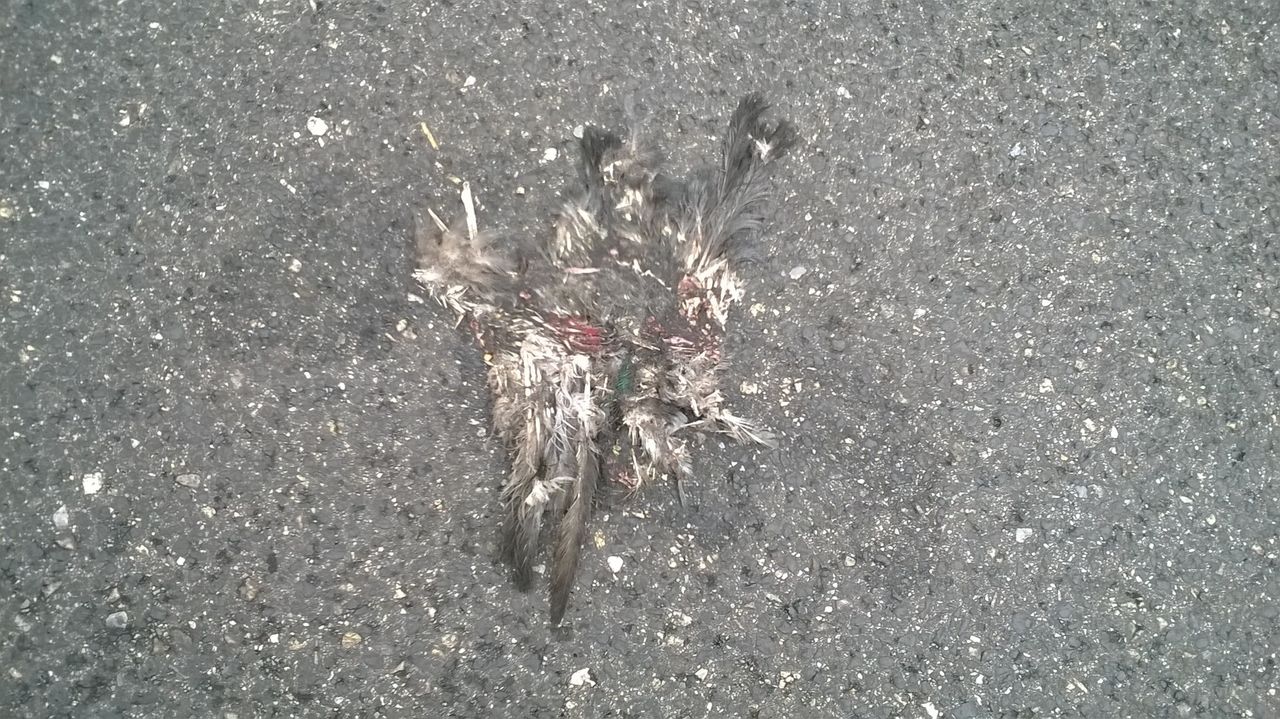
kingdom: Animalia
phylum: Chordata
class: Aves
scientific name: Aves
